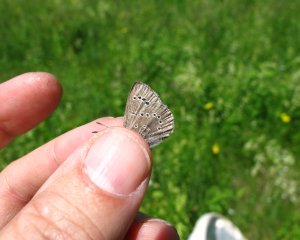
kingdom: Animalia
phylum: Arthropoda
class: Insecta
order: Lepidoptera
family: Lycaenidae
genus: Glaucopsyche
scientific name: Glaucopsyche lygdamus
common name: Silvery Blue
